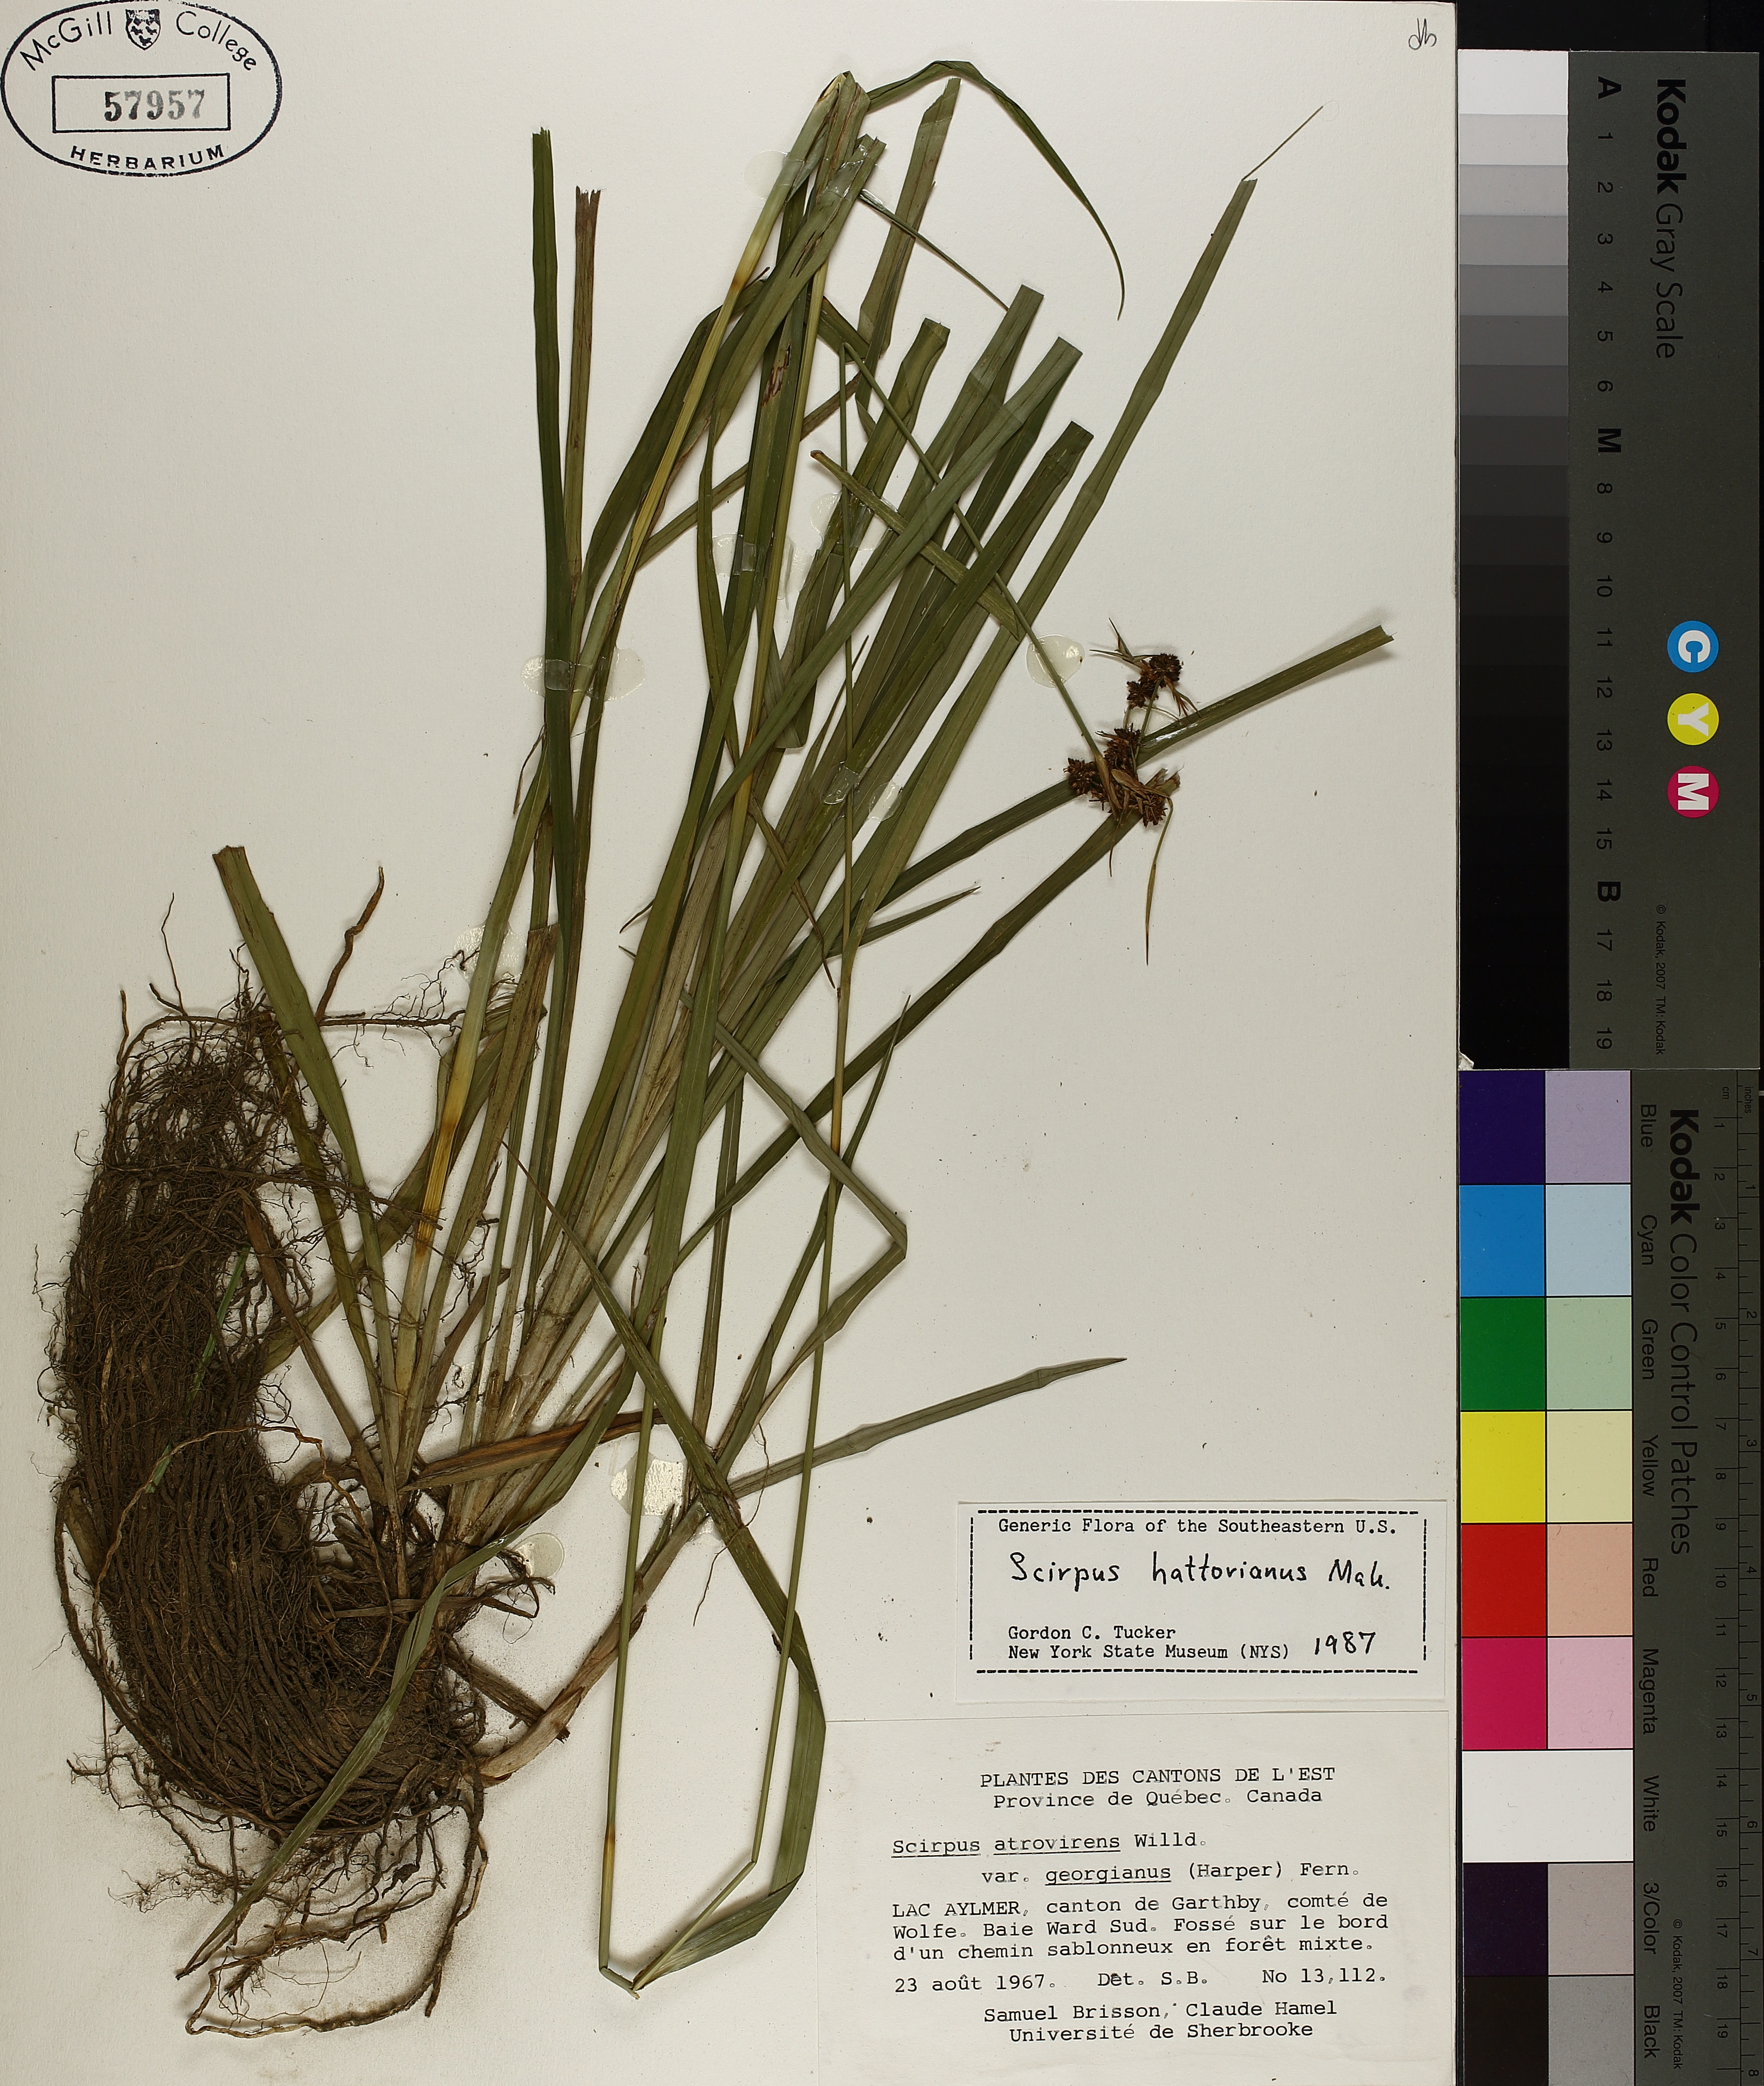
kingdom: Plantae
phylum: Tracheophyta
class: Liliopsida
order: Poales
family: Cyperaceae
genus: Scirpus
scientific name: Scirpus hattorianus
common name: Early dark-green bulrush
